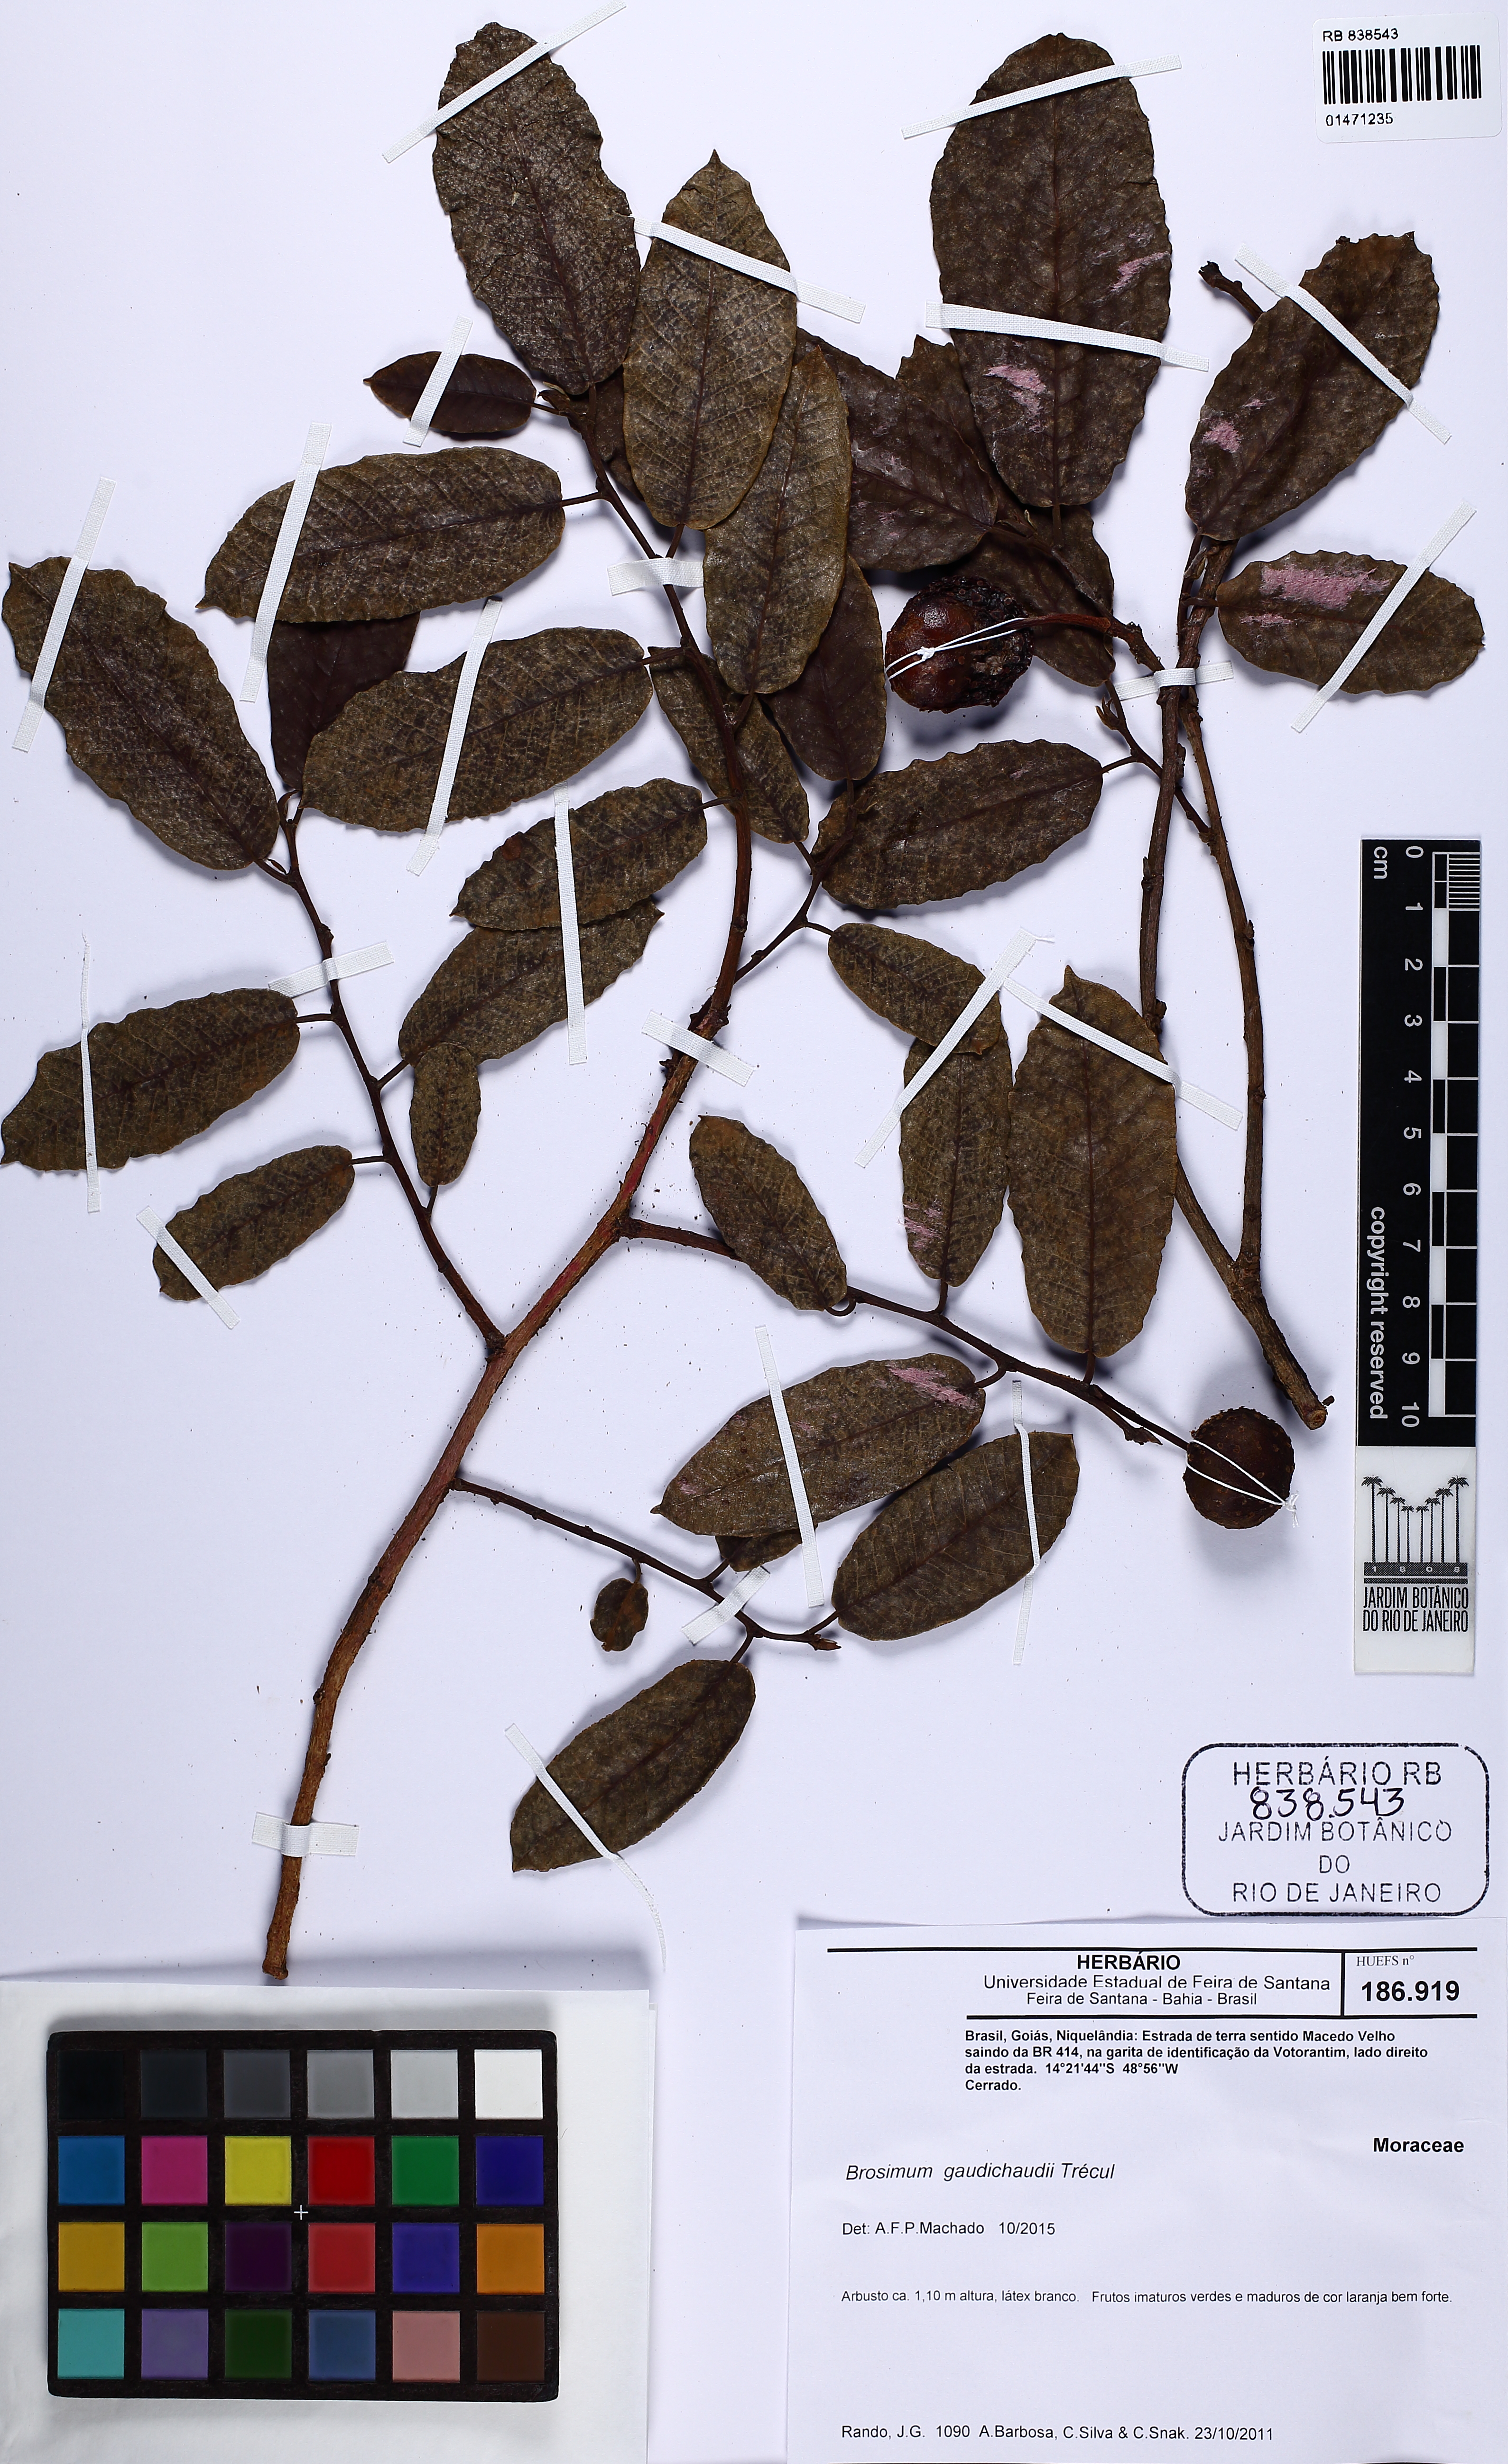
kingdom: Plantae
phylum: Tracheophyta
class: Magnoliopsida
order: Rosales
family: Moraceae
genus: Brosimum
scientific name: Brosimum gaudichaudii
